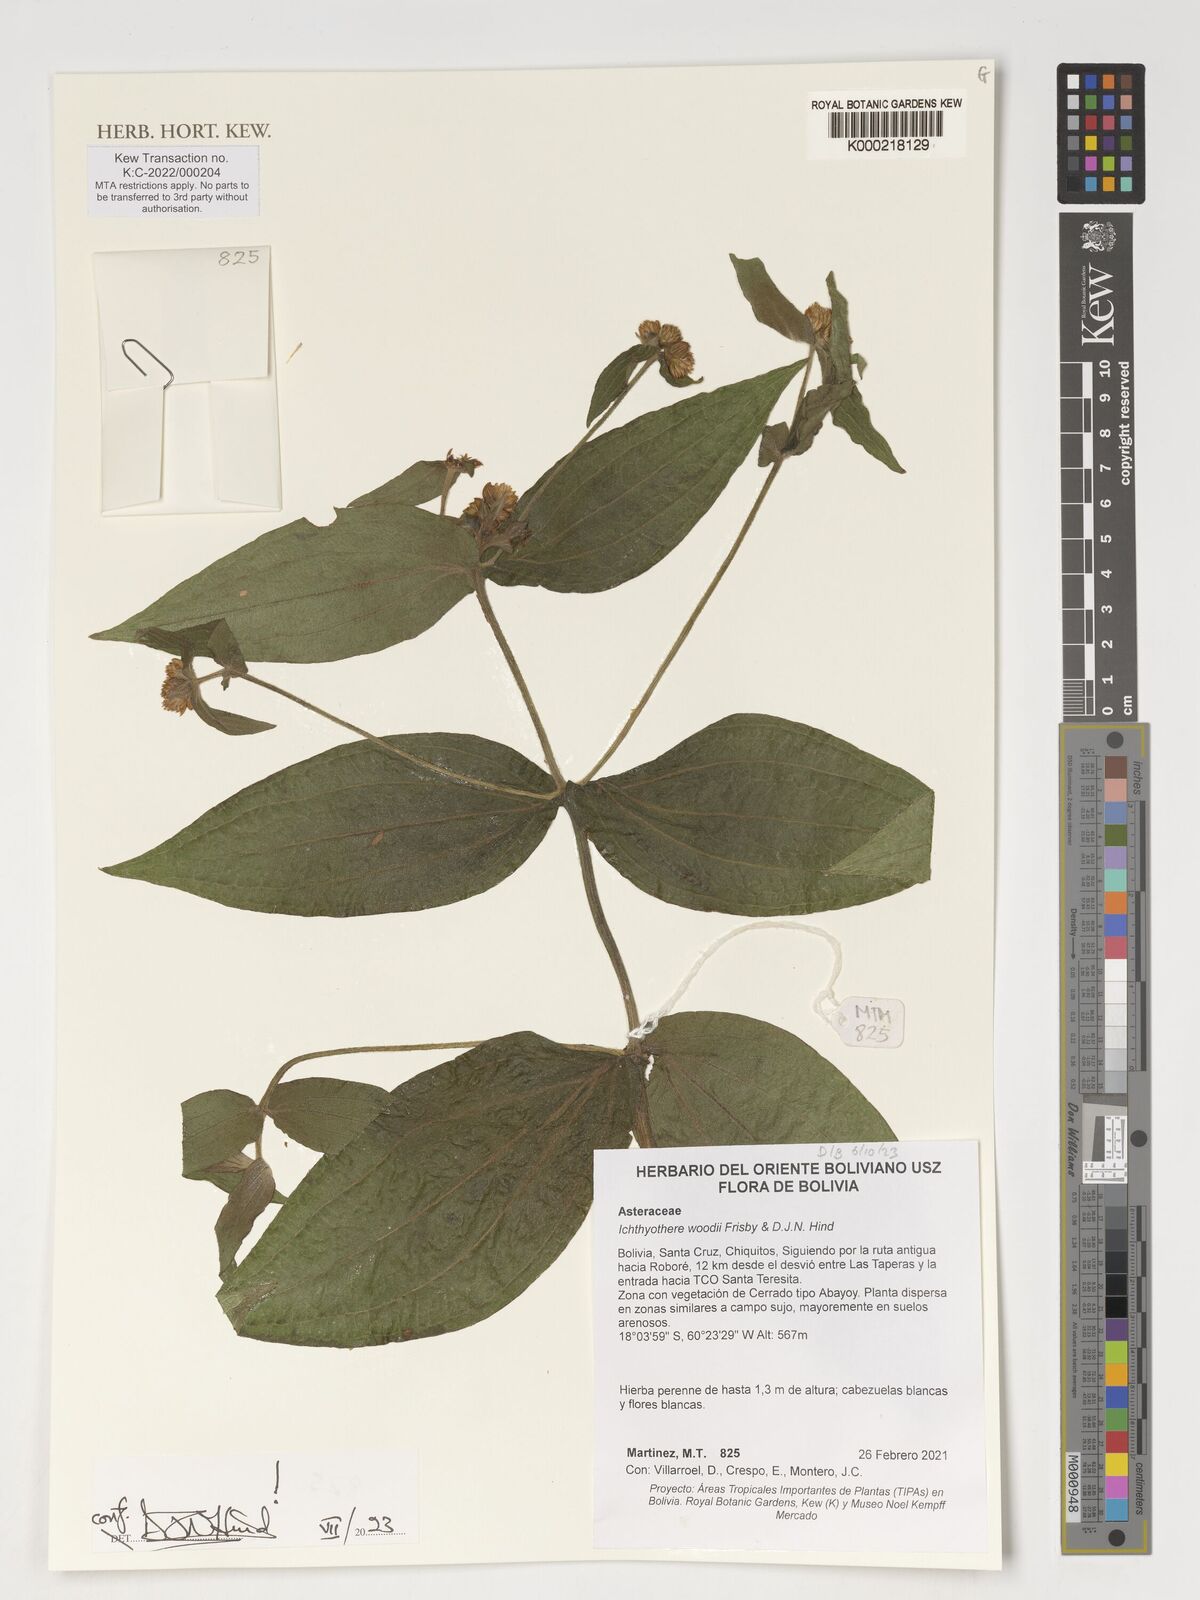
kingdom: Plantae
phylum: Tracheophyta
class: Magnoliopsida
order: Asterales
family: Asteraceae
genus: Ichthyothere
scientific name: Ichthyothere woodii
